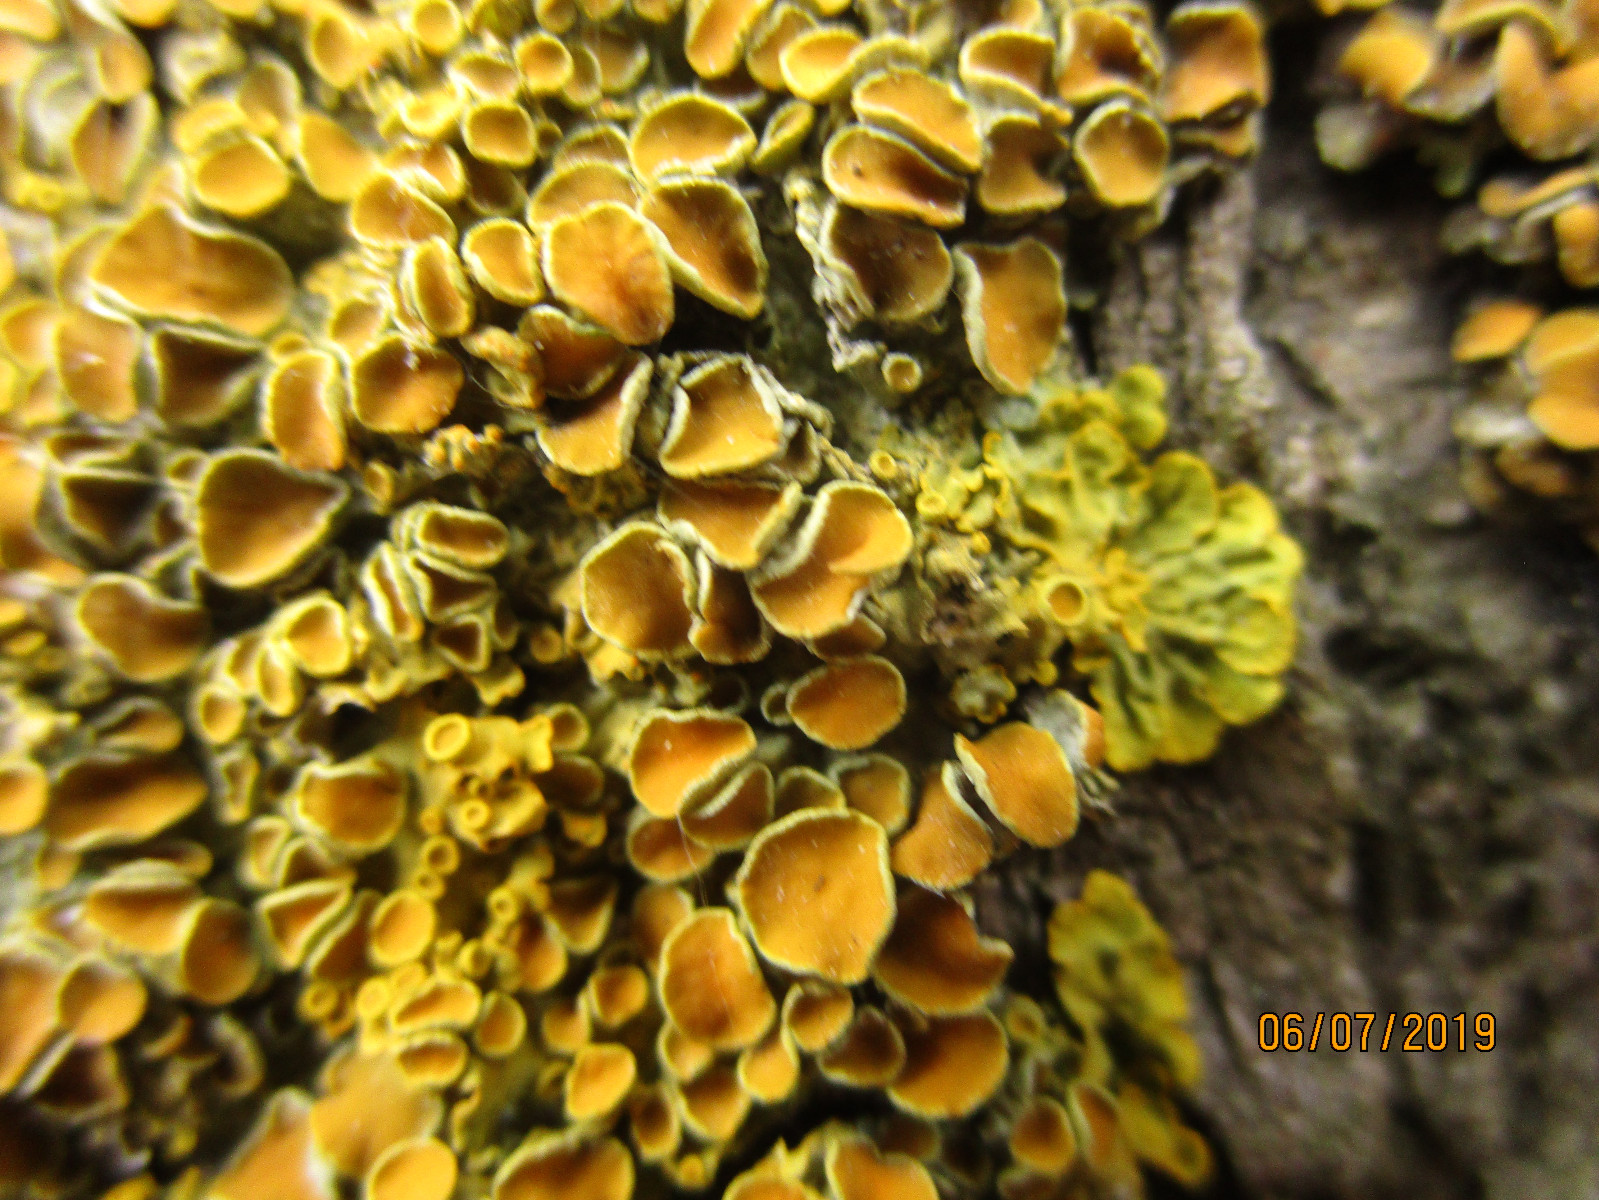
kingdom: Fungi
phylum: Ascomycota
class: Lecanoromycetes
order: Teloschistales
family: Teloschistaceae
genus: Xanthoria
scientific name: Xanthoria parietina
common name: almindelig væggelav
